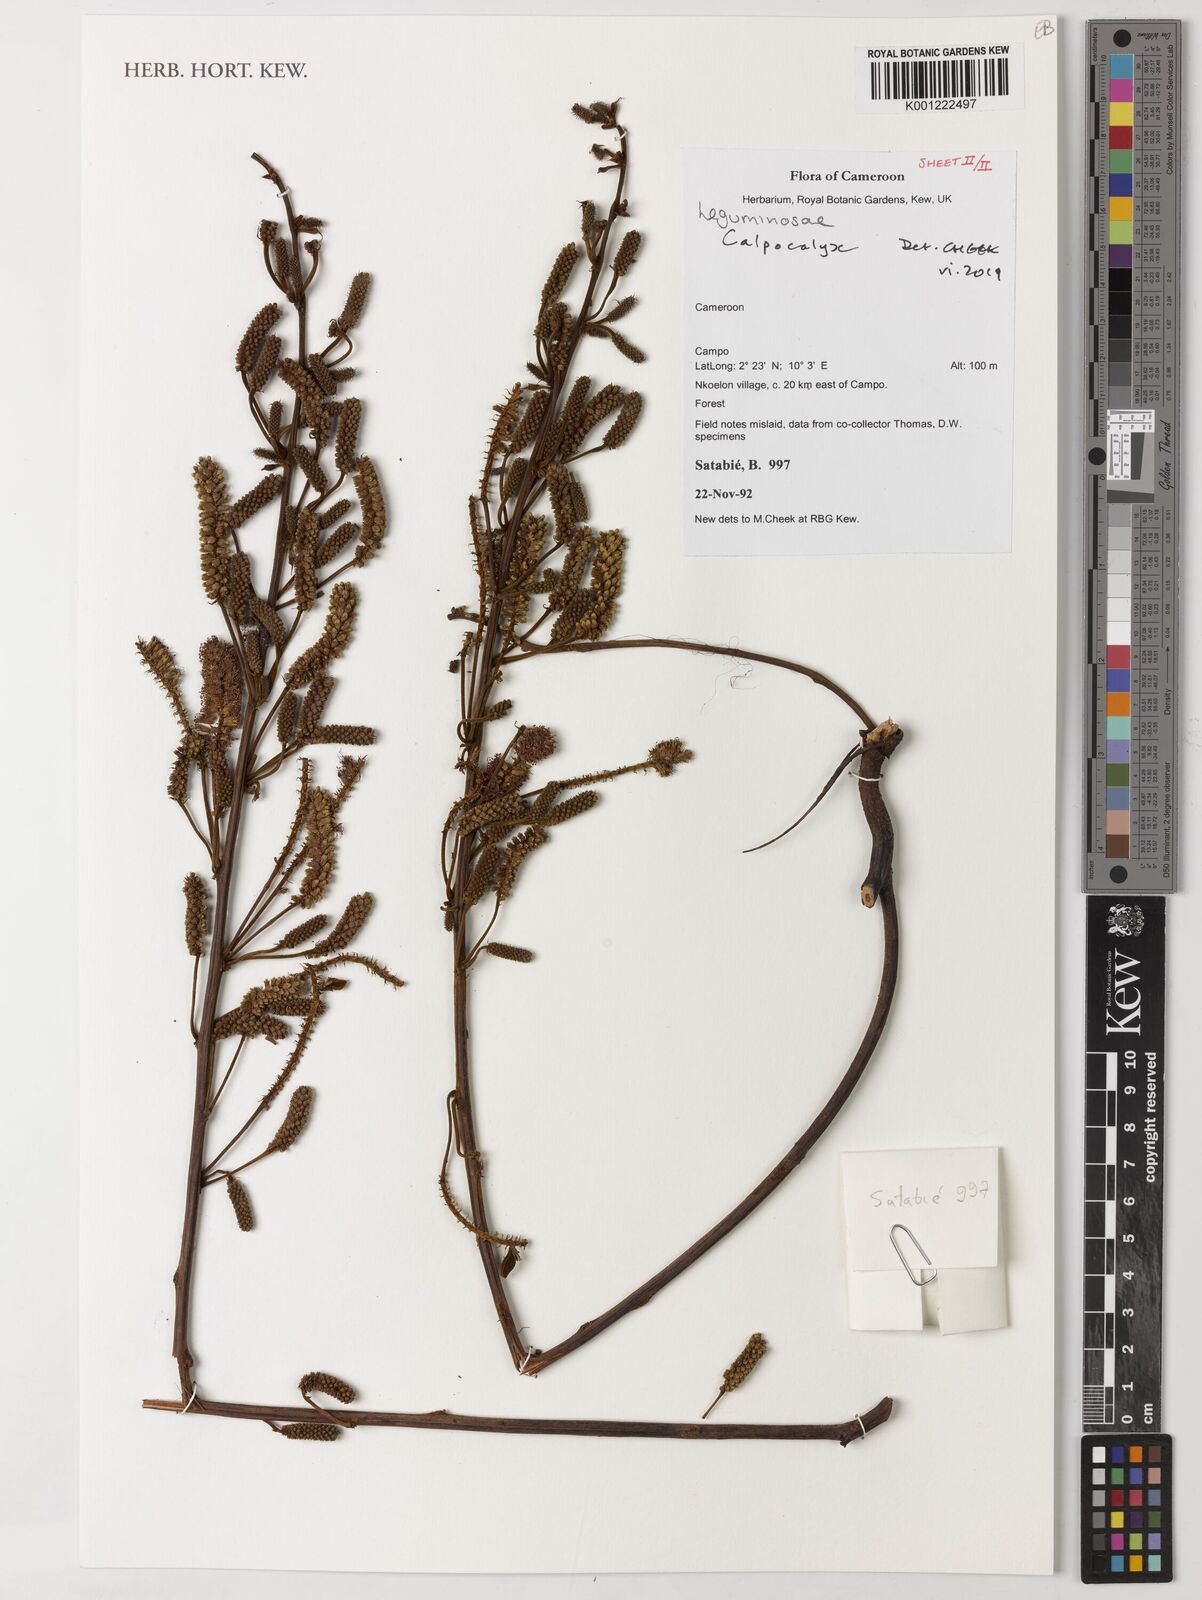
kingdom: Plantae
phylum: Tracheophyta
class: Magnoliopsida
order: Fabales
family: Fabaceae
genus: Calpocalyx
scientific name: Calpocalyx dinklagei
